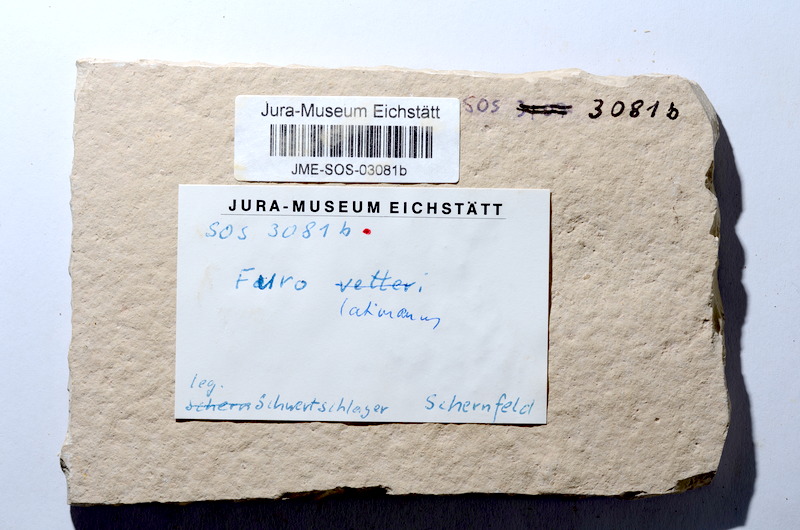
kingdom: Animalia
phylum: Chordata
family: Ophiopsiellidae
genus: Furo
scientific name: Furo latimanus
